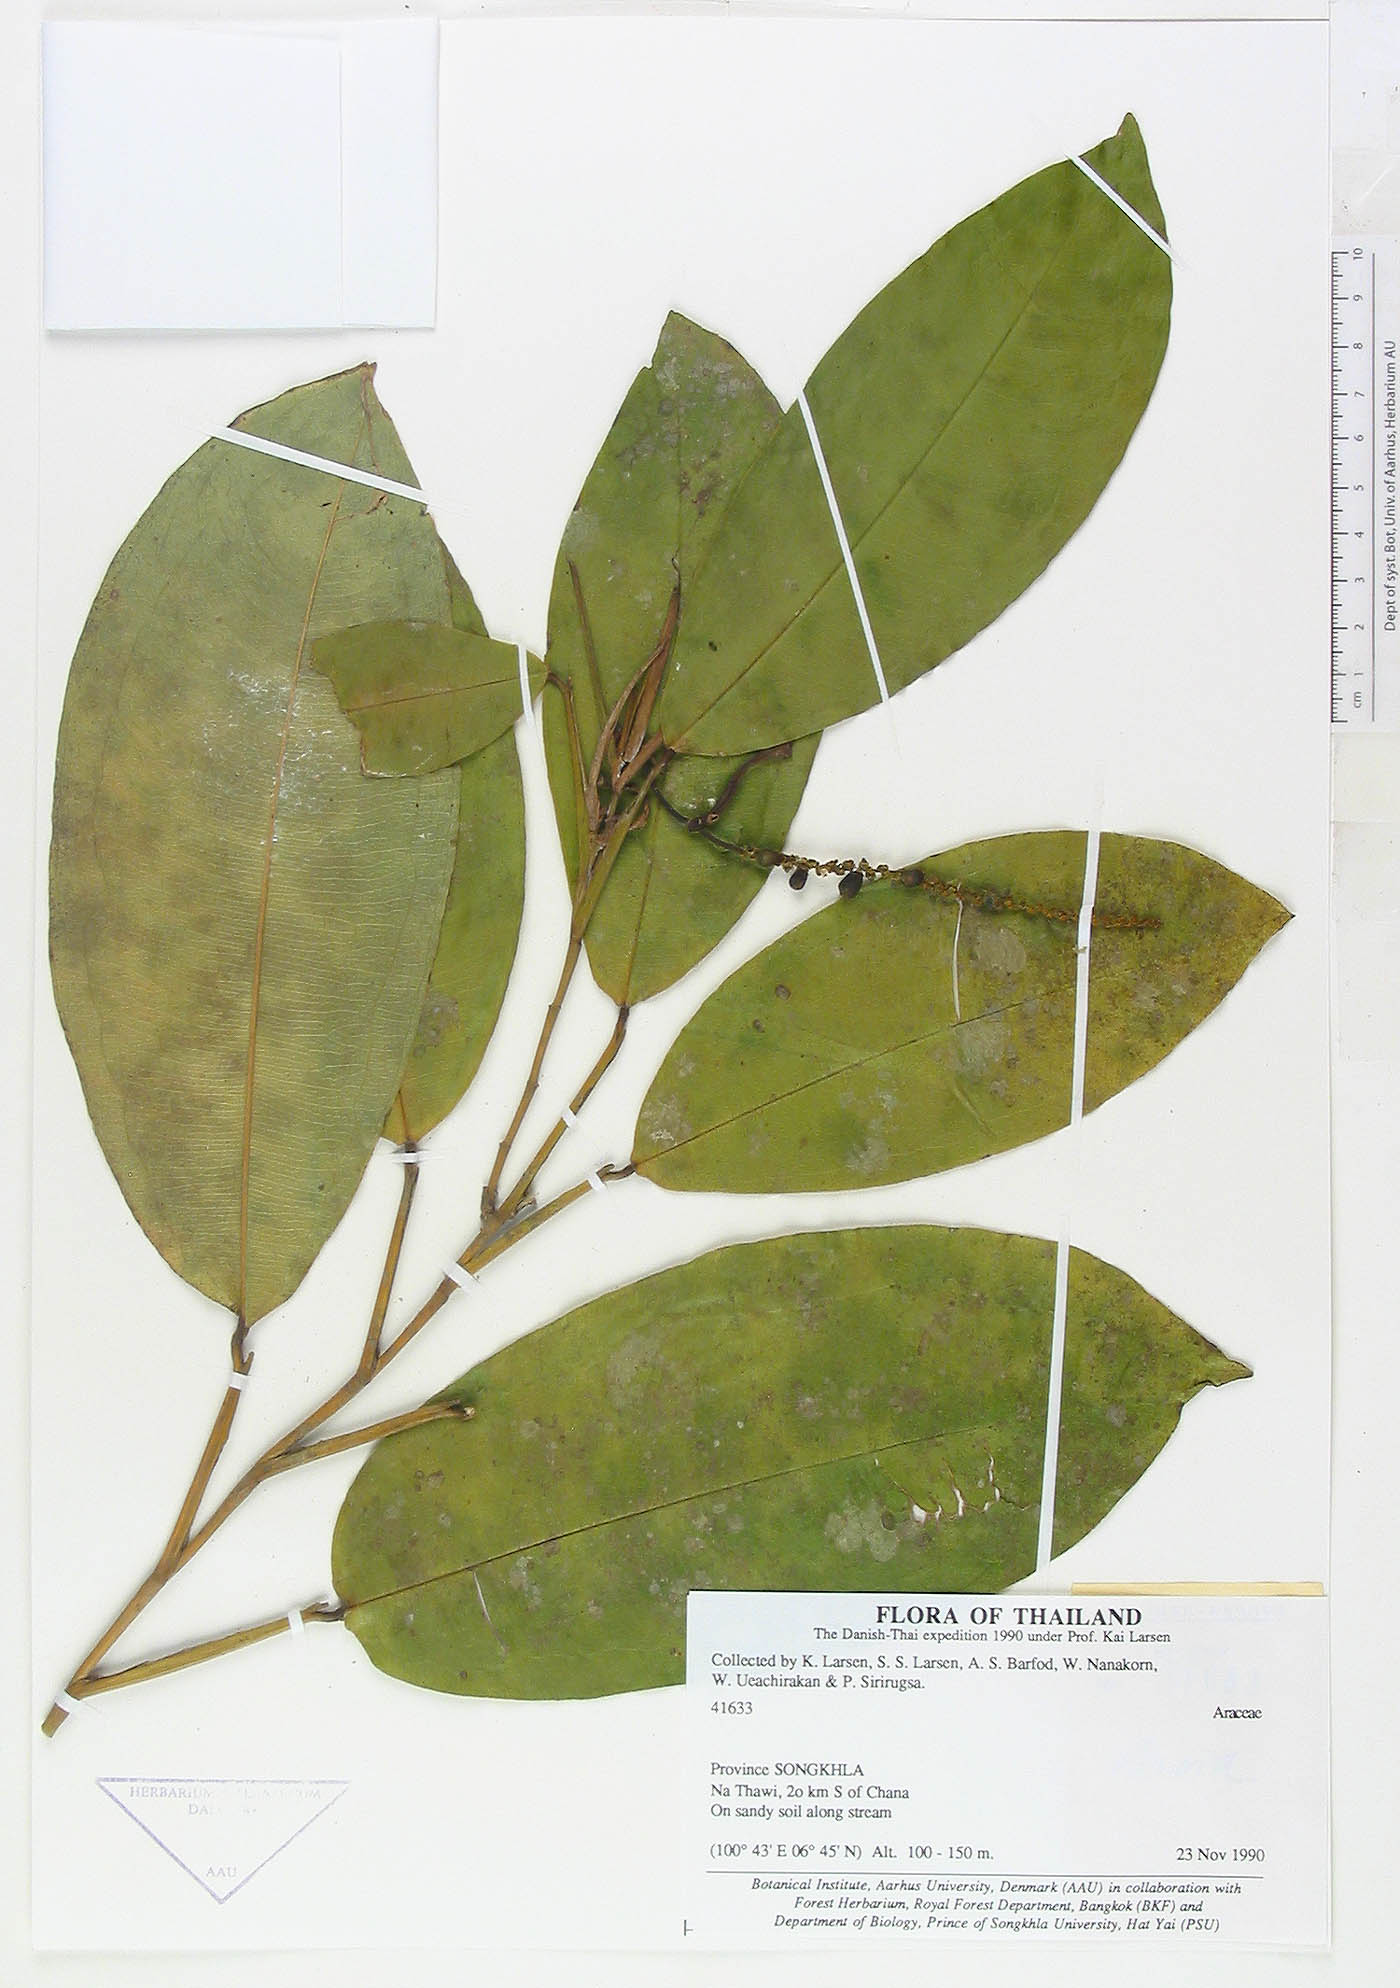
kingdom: Plantae
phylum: Tracheophyta
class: Liliopsida
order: Alismatales
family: Araceae
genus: Pothos
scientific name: Pothos curtisii
